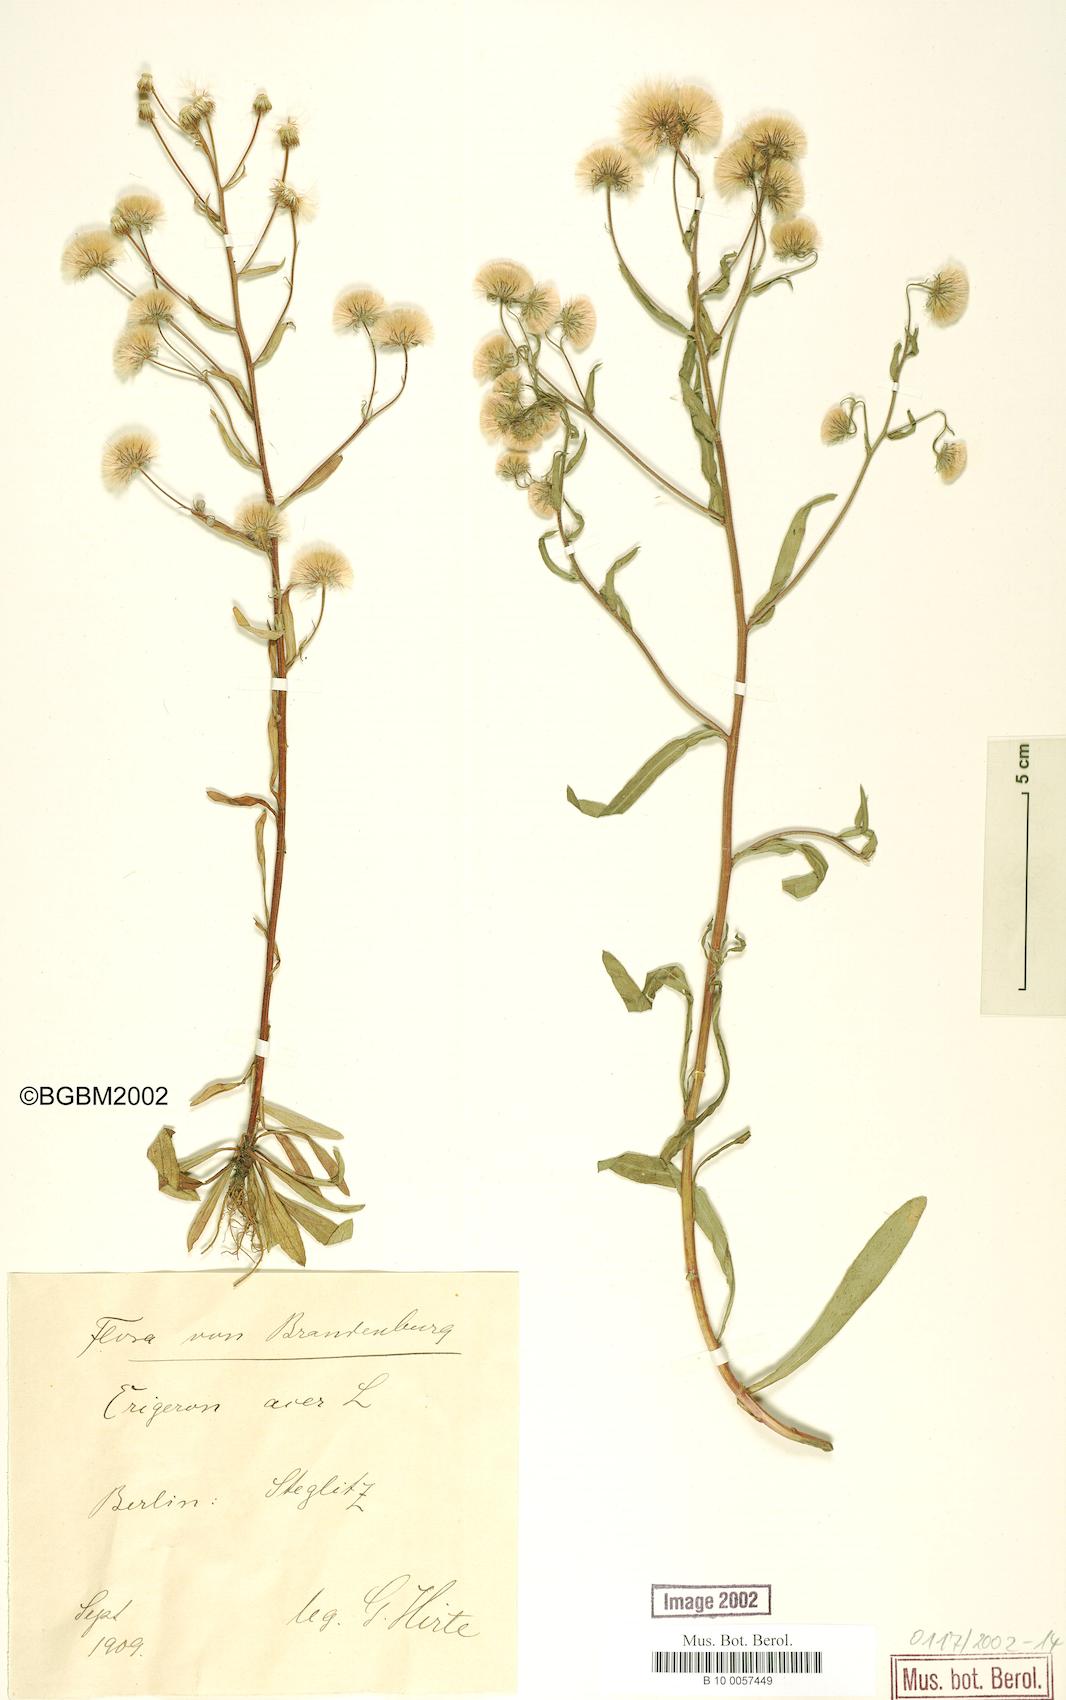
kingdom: Plantae
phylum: Tracheophyta
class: Magnoliopsida
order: Asterales
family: Asteraceae
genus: Erigeron
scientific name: Erigeron acris
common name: Blue fleabane
